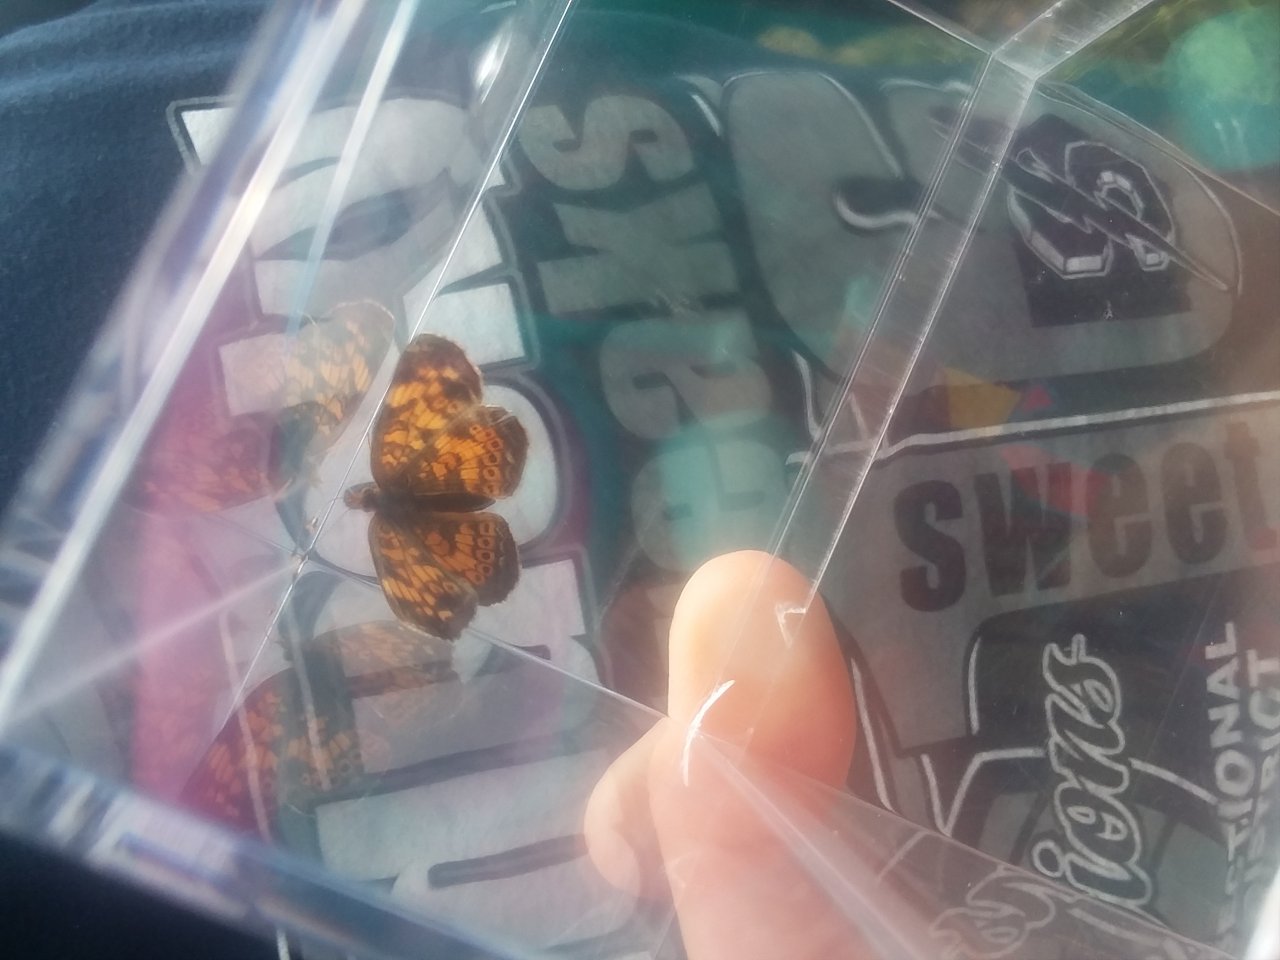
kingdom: Animalia
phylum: Arthropoda
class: Insecta
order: Lepidoptera
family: Nymphalidae
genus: Speyeria
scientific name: Speyeria cybele
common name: Great Spangled Fritillary
